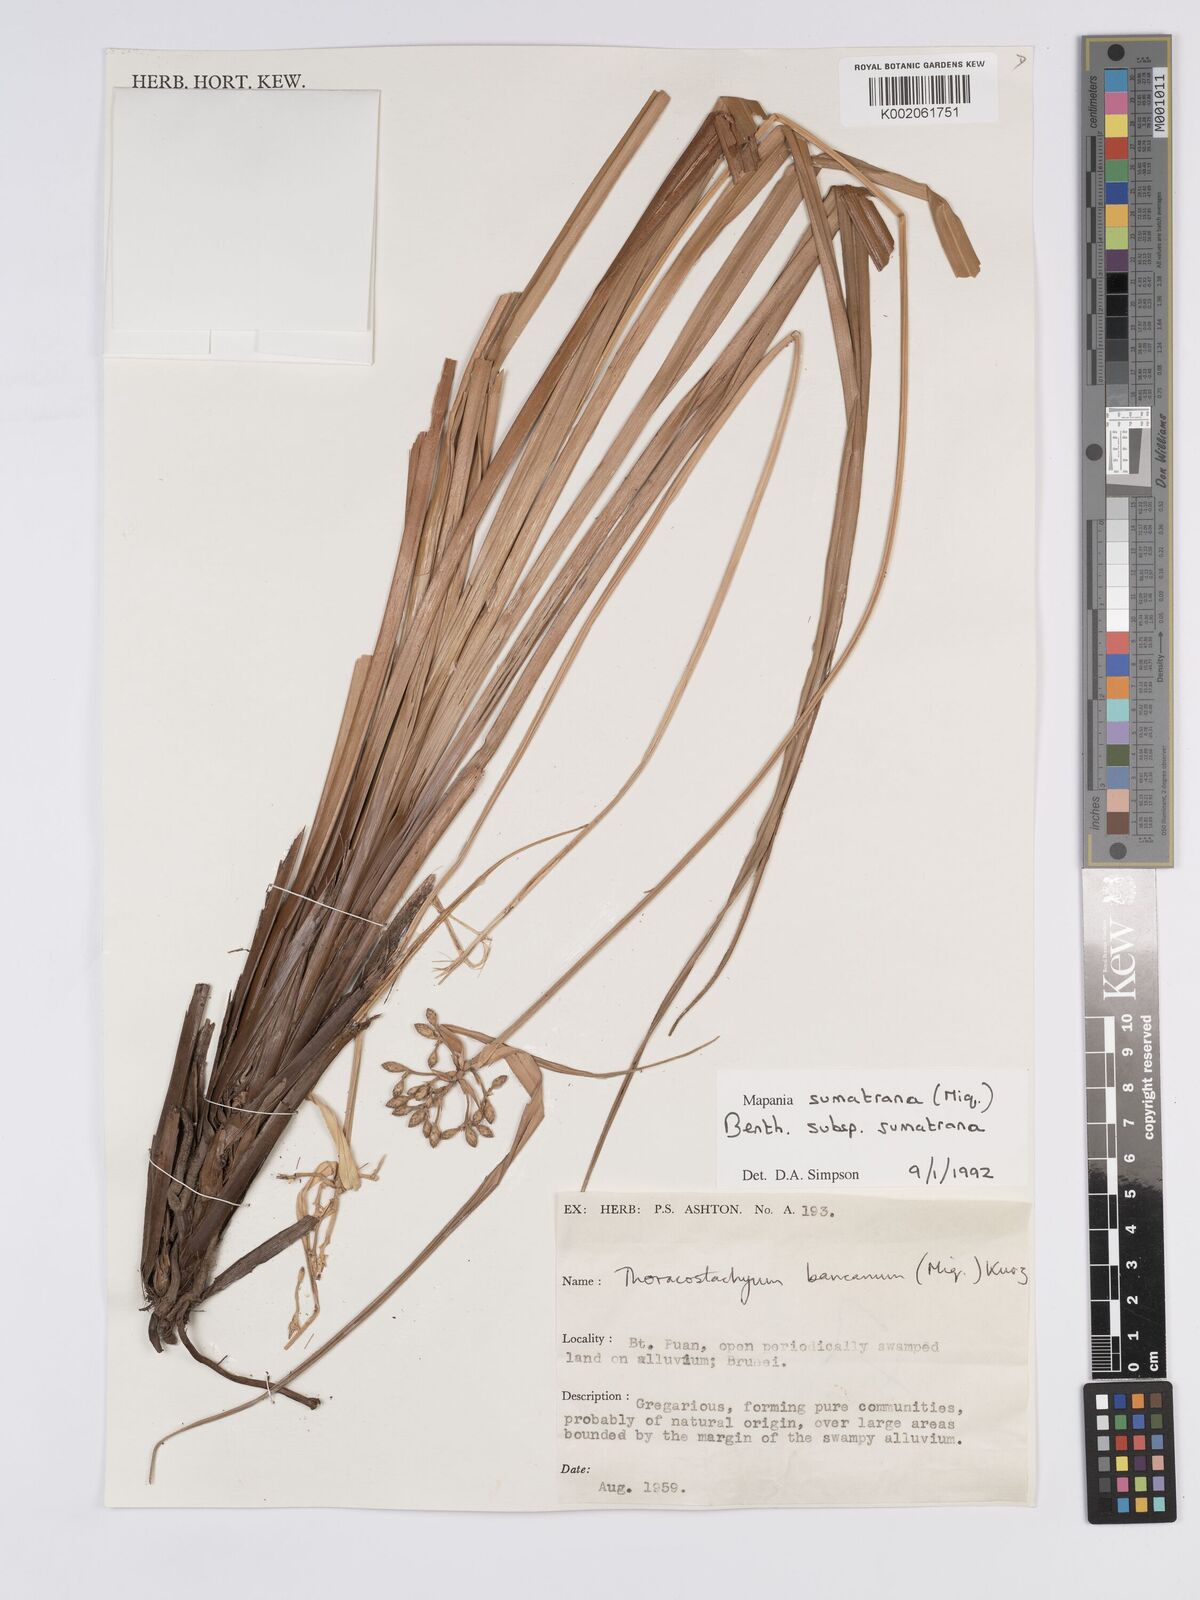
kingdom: Plantae
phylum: Tracheophyta
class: Liliopsida
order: Poales
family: Cyperaceae
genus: Mapania
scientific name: Mapania sumatrana
